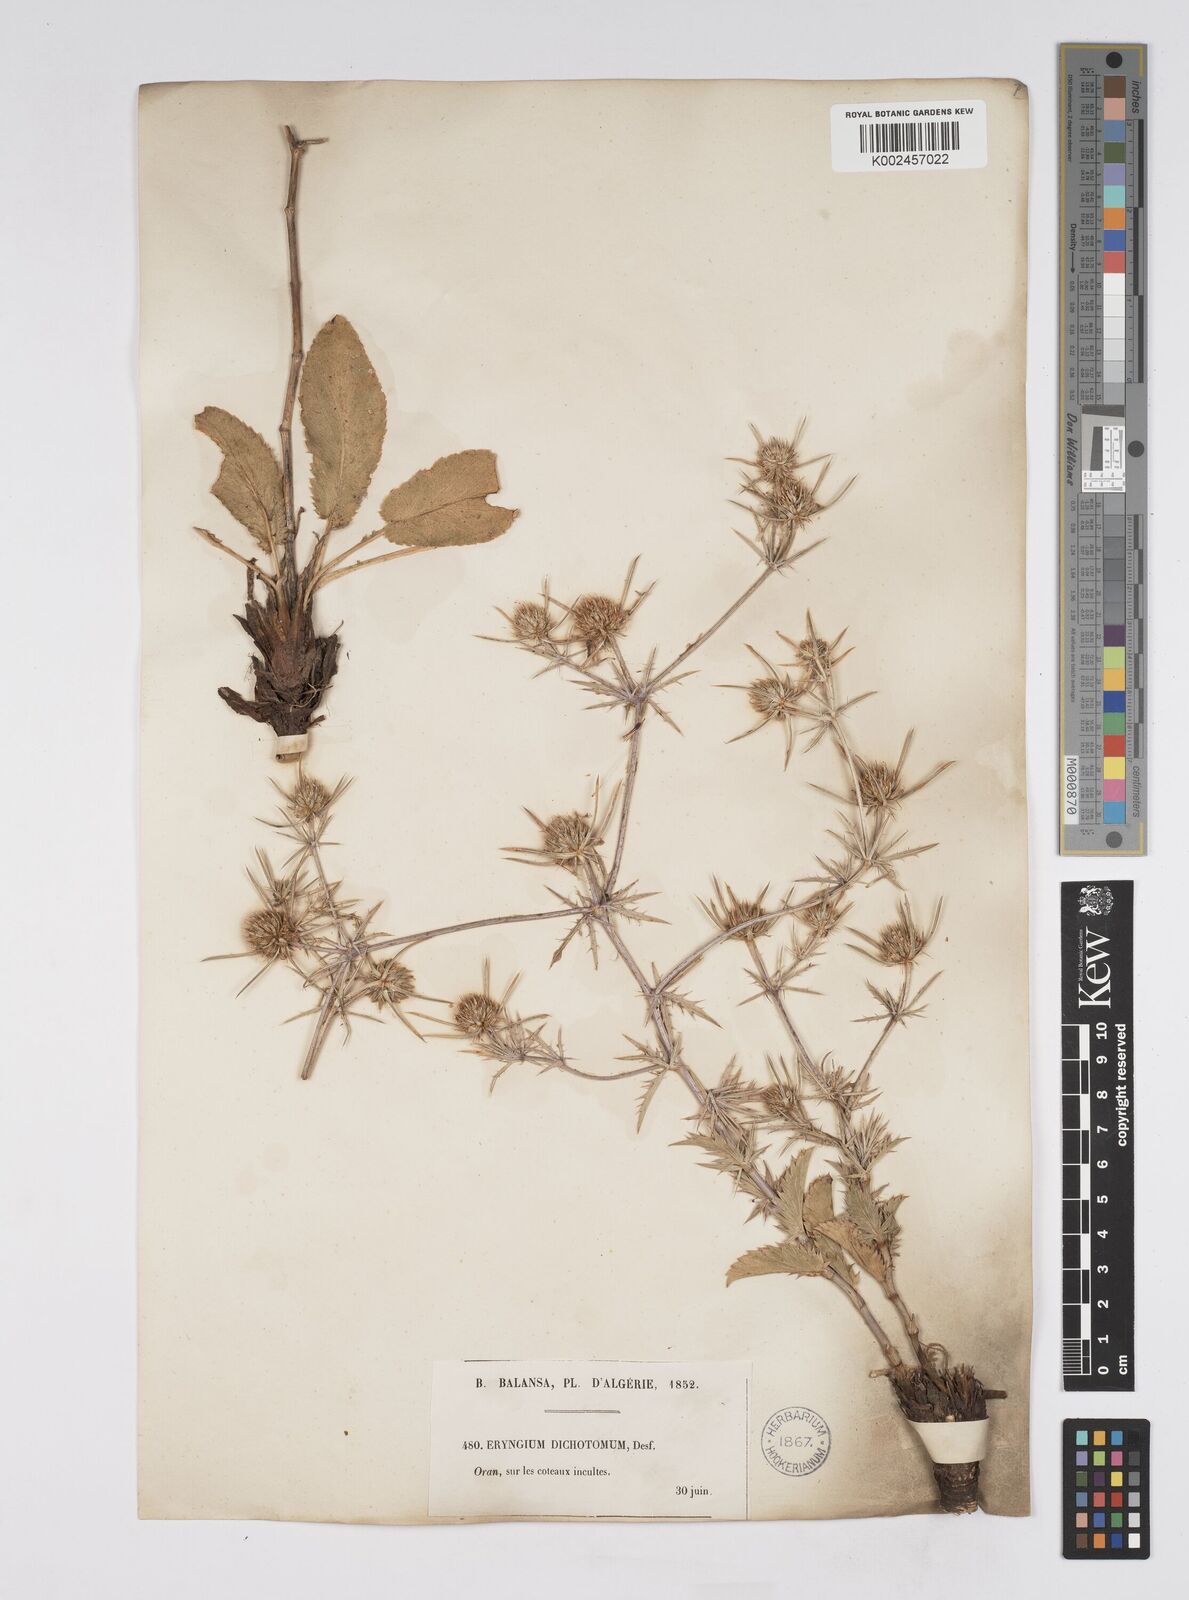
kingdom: Plantae
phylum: Tracheophyta
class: Magnoliopsida
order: Apiales
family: Apiaceae
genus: Eryngium
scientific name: Eryngium dichotomum
